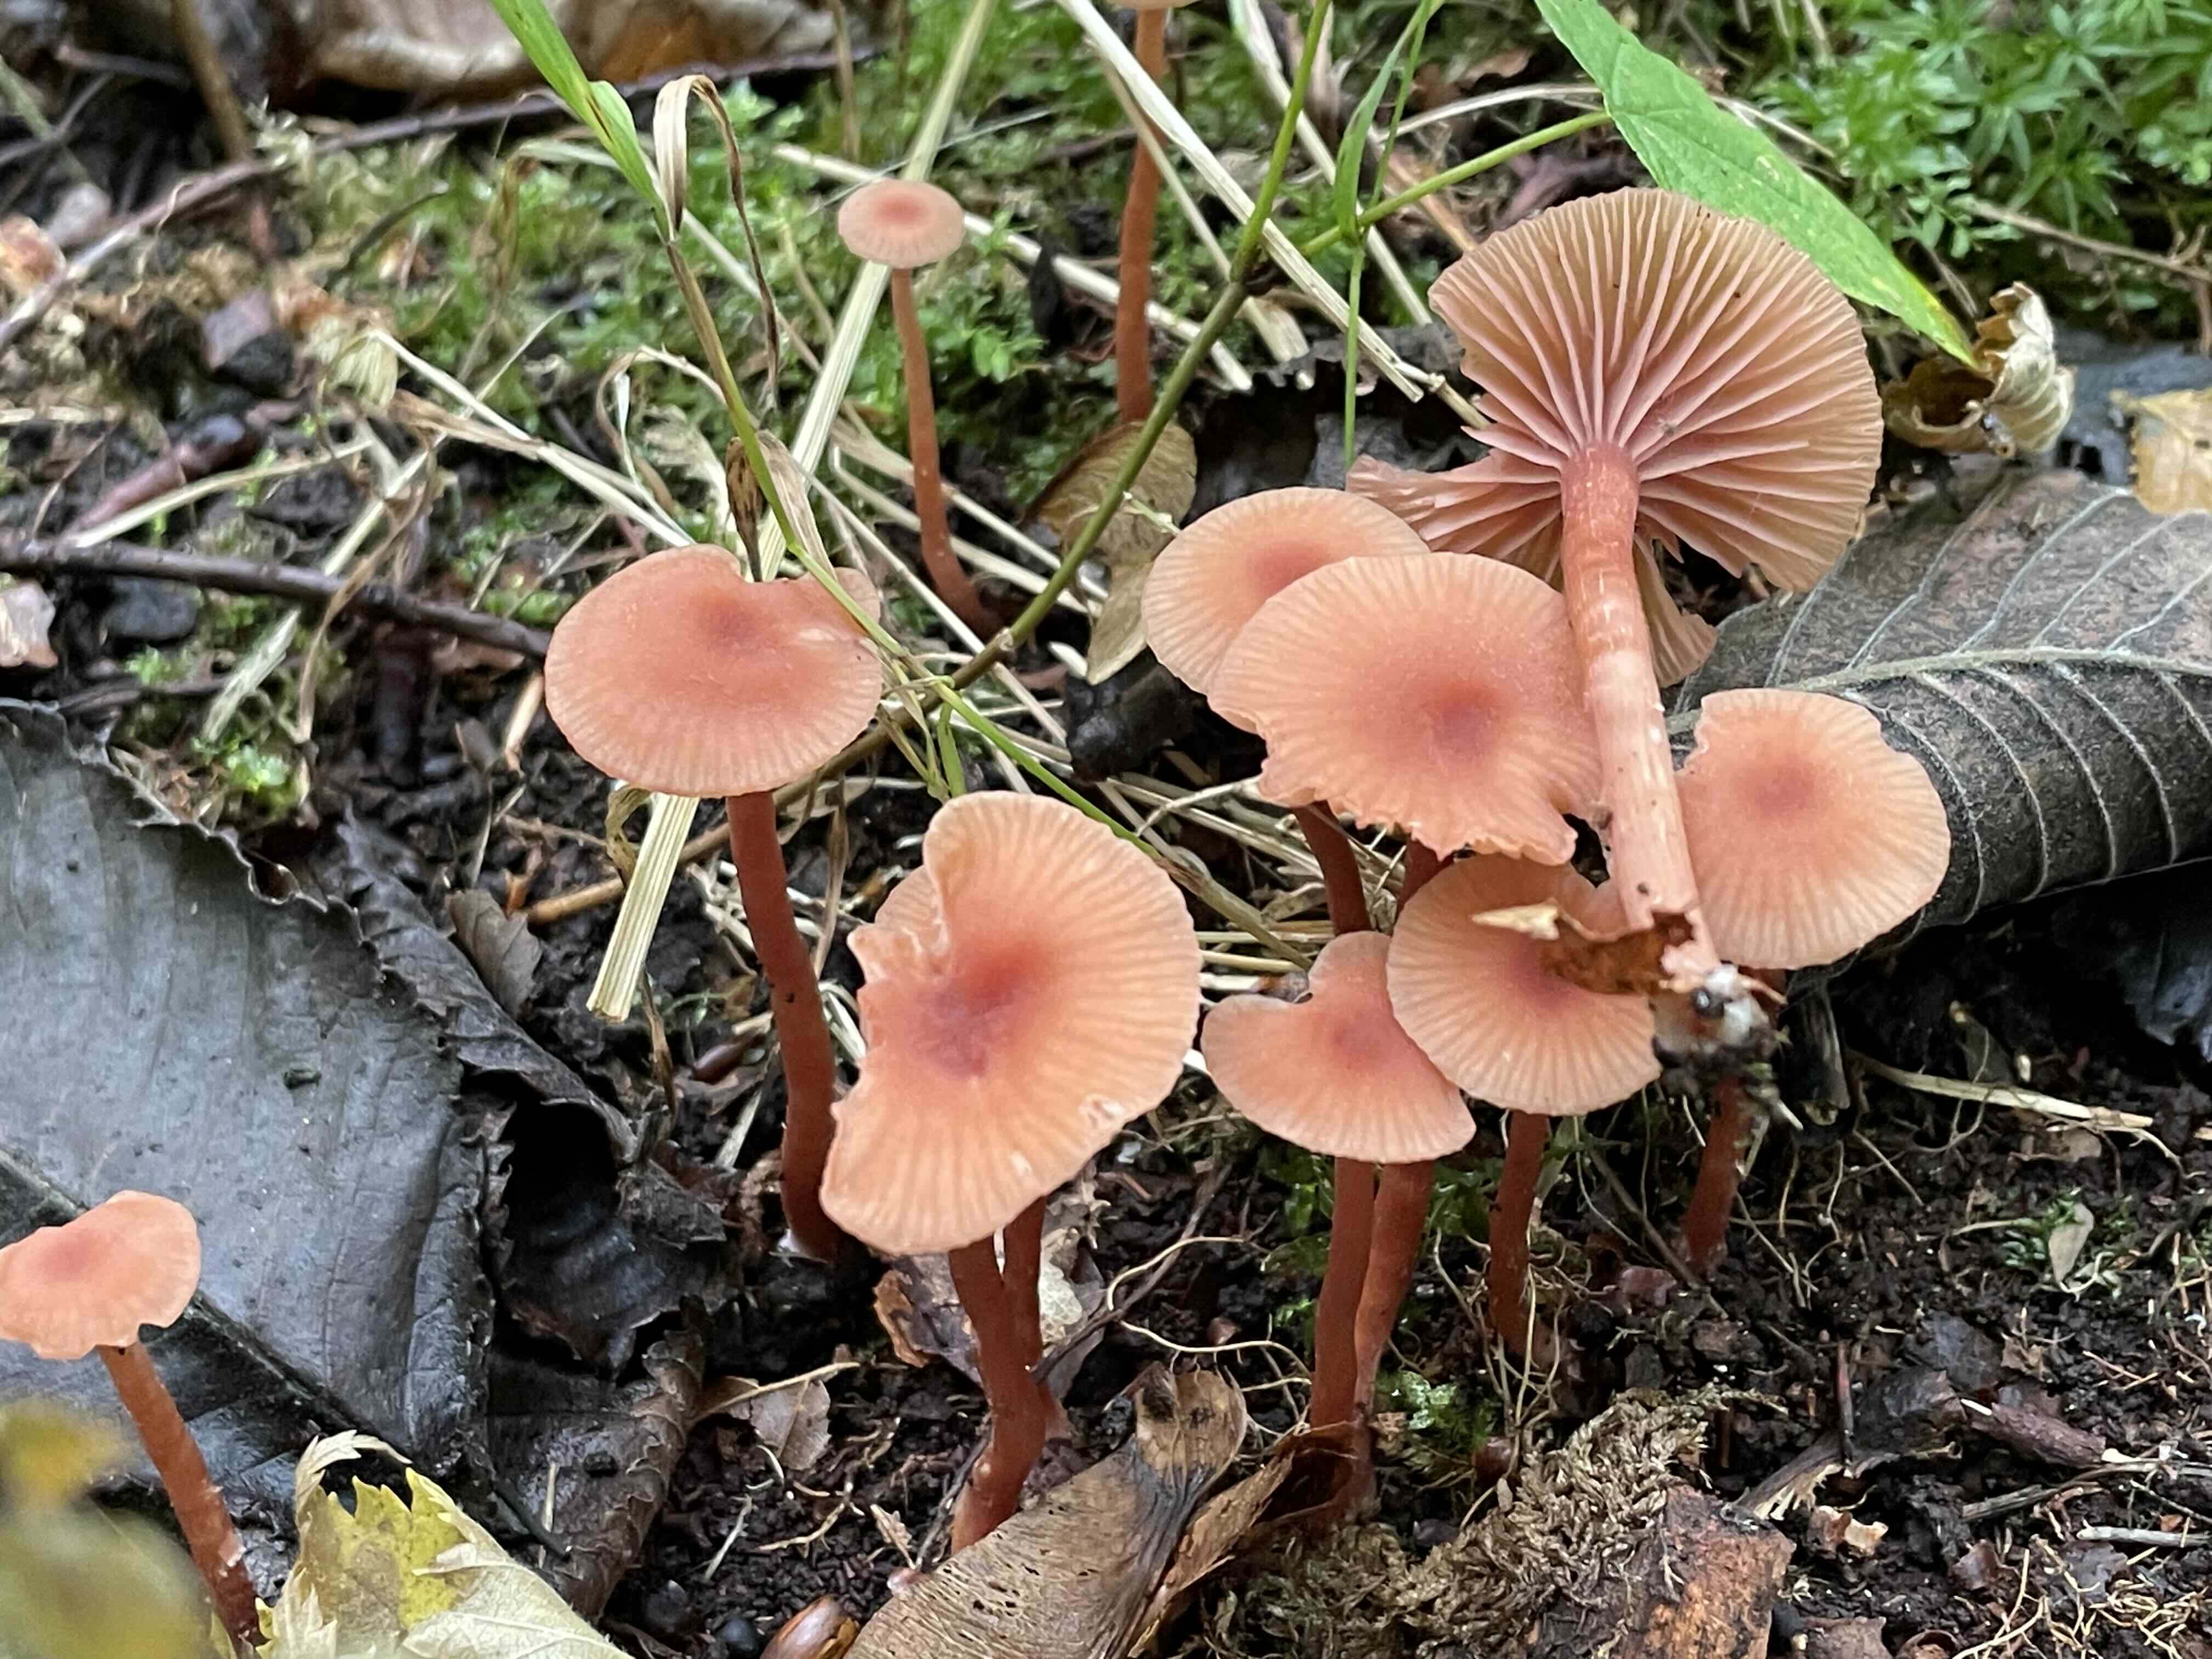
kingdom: Fungi
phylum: Basidiomycota
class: Agaricomycetes
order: Agaricales
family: Hydnangiaceae
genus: Laccaria
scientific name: Laccaria laccata
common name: rød ametysthat
